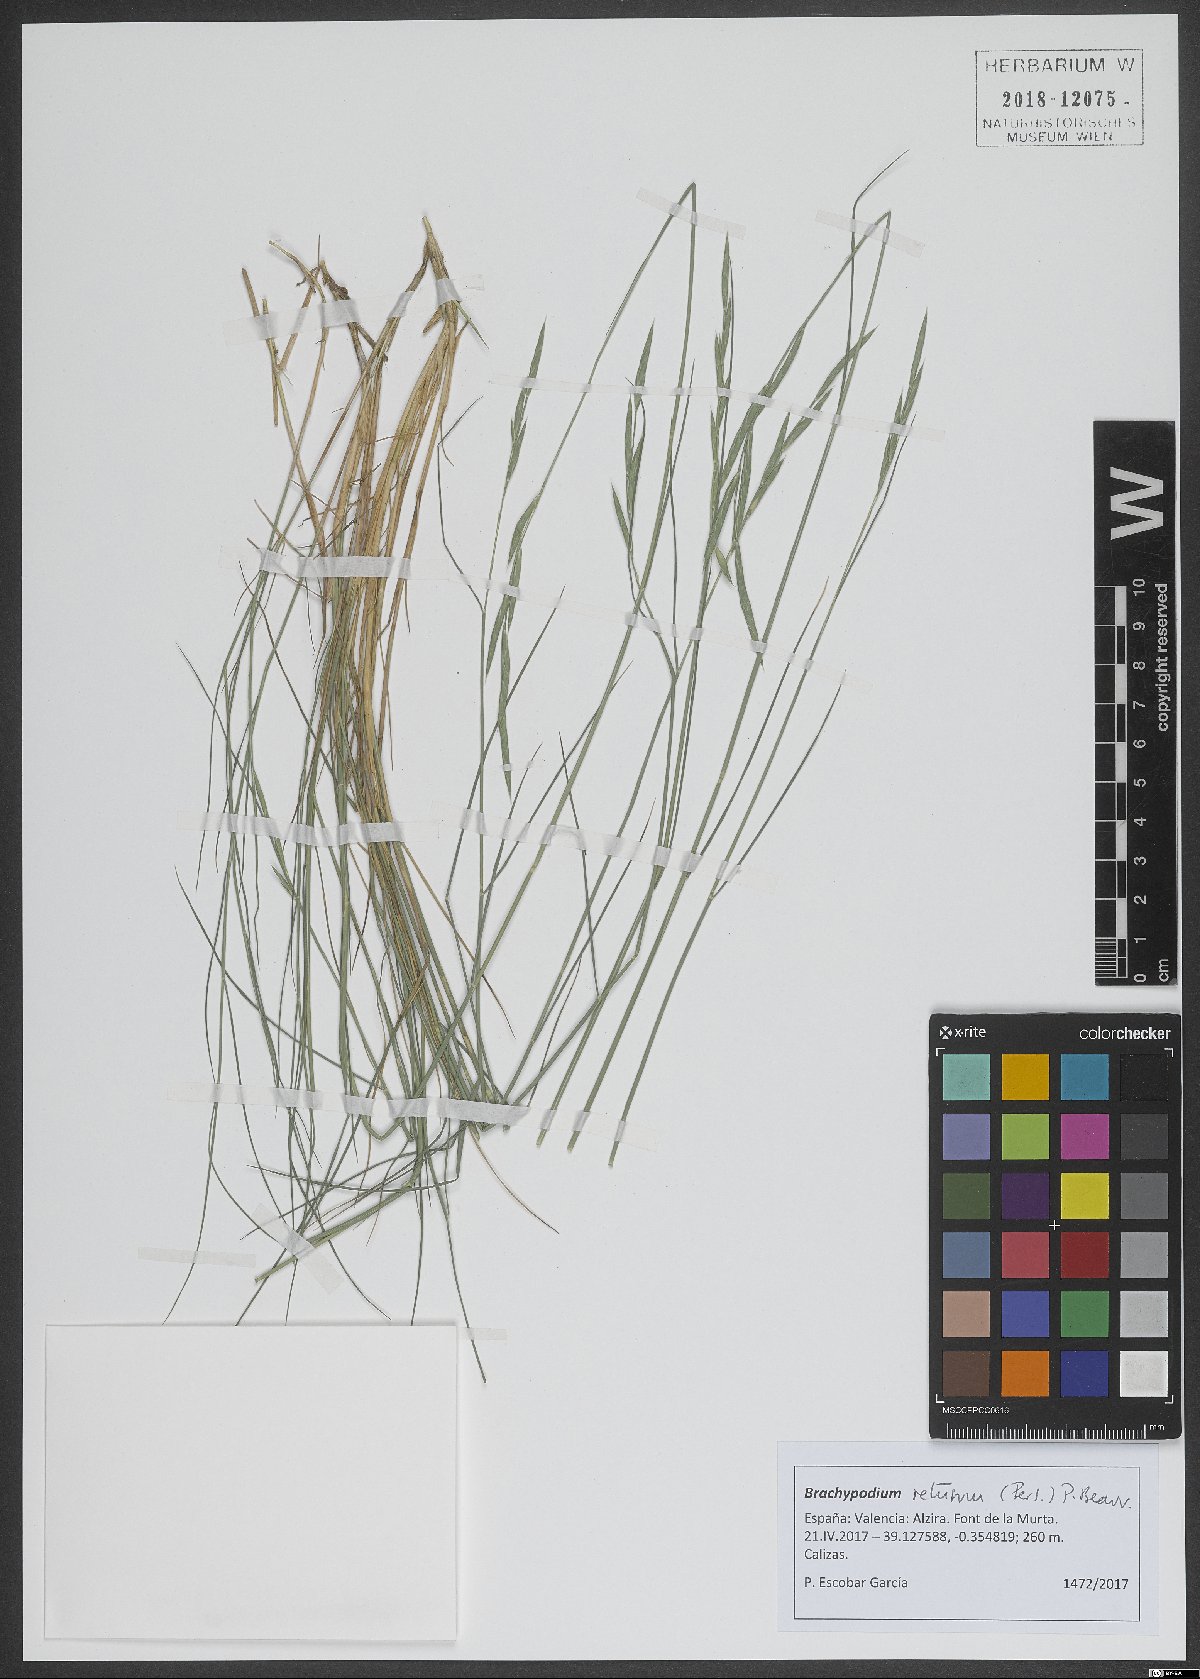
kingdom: Plantae
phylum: Tracheophyta
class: Liliopsida
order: Poales
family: Poaceae
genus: Brachypodium
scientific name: Brachypodium retusum
